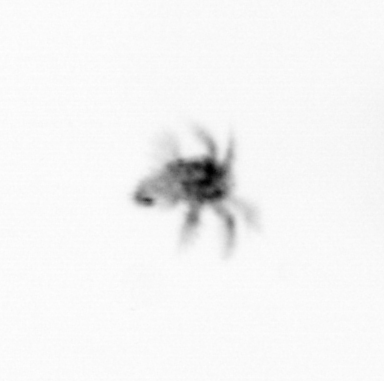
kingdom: Animalia
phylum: Arthropoda
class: Copepoda
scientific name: Copepoda
